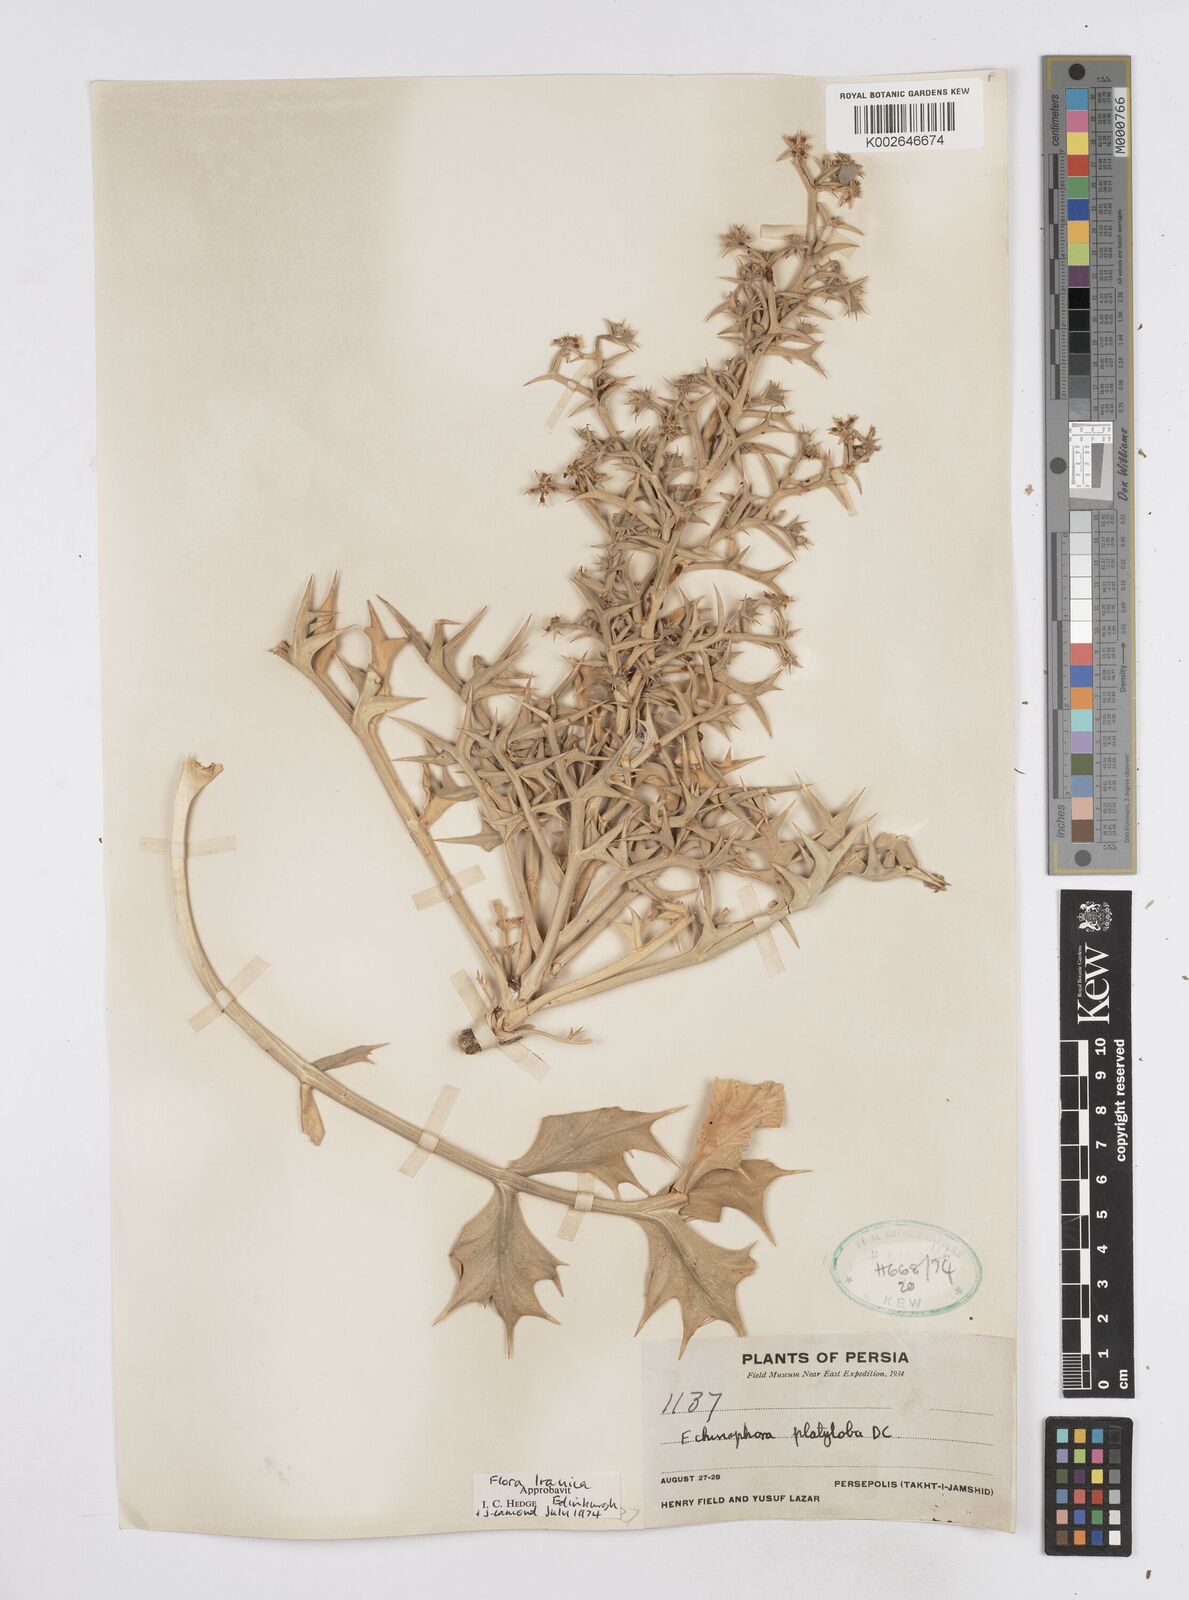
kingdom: Plantae
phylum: Tracheophyta
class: Magnoliopsida
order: Apiales
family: Apiaceae
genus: Echinophora
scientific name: Echinophora platyloba
